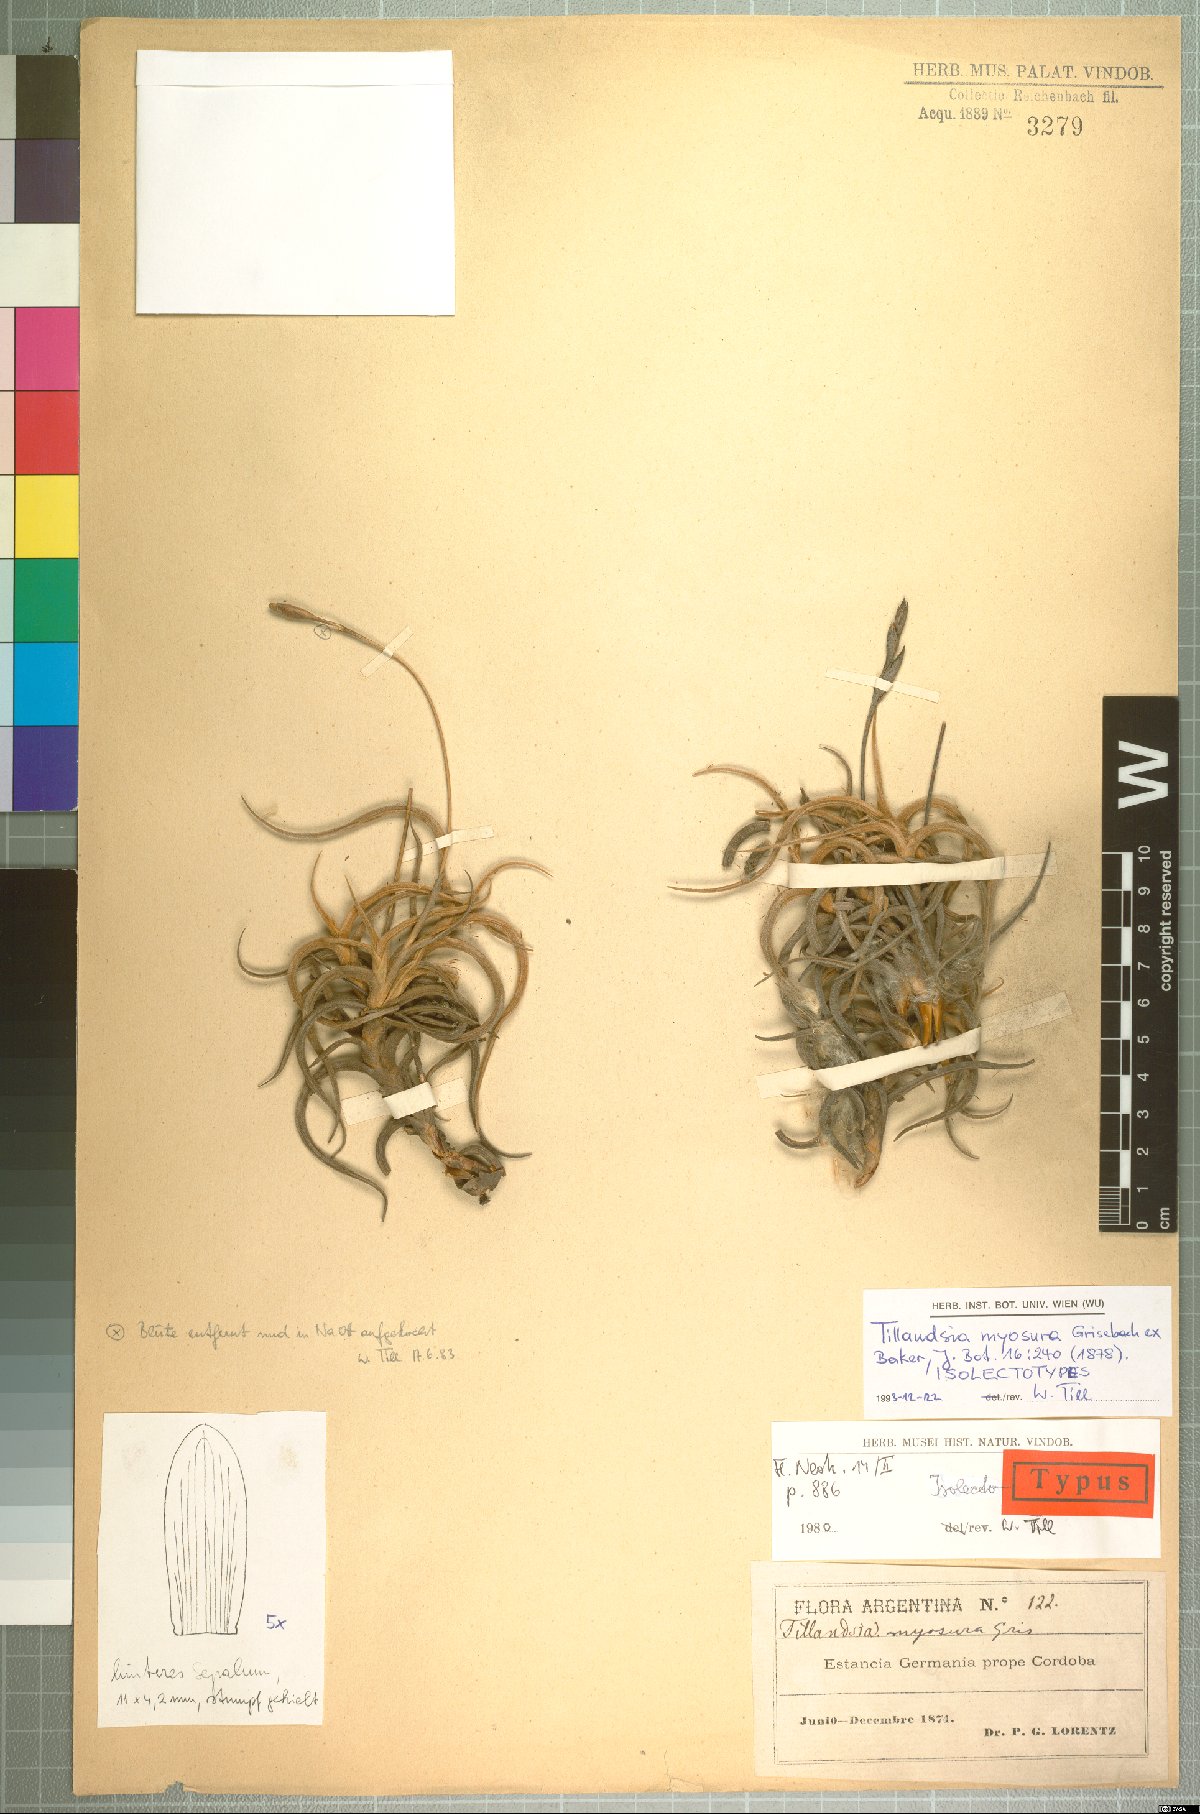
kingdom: Plantae
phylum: Tracheophyta
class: Liliopsida
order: Poales
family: Bromeliaceae
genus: Tillandsia
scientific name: Tillandsia myosura
